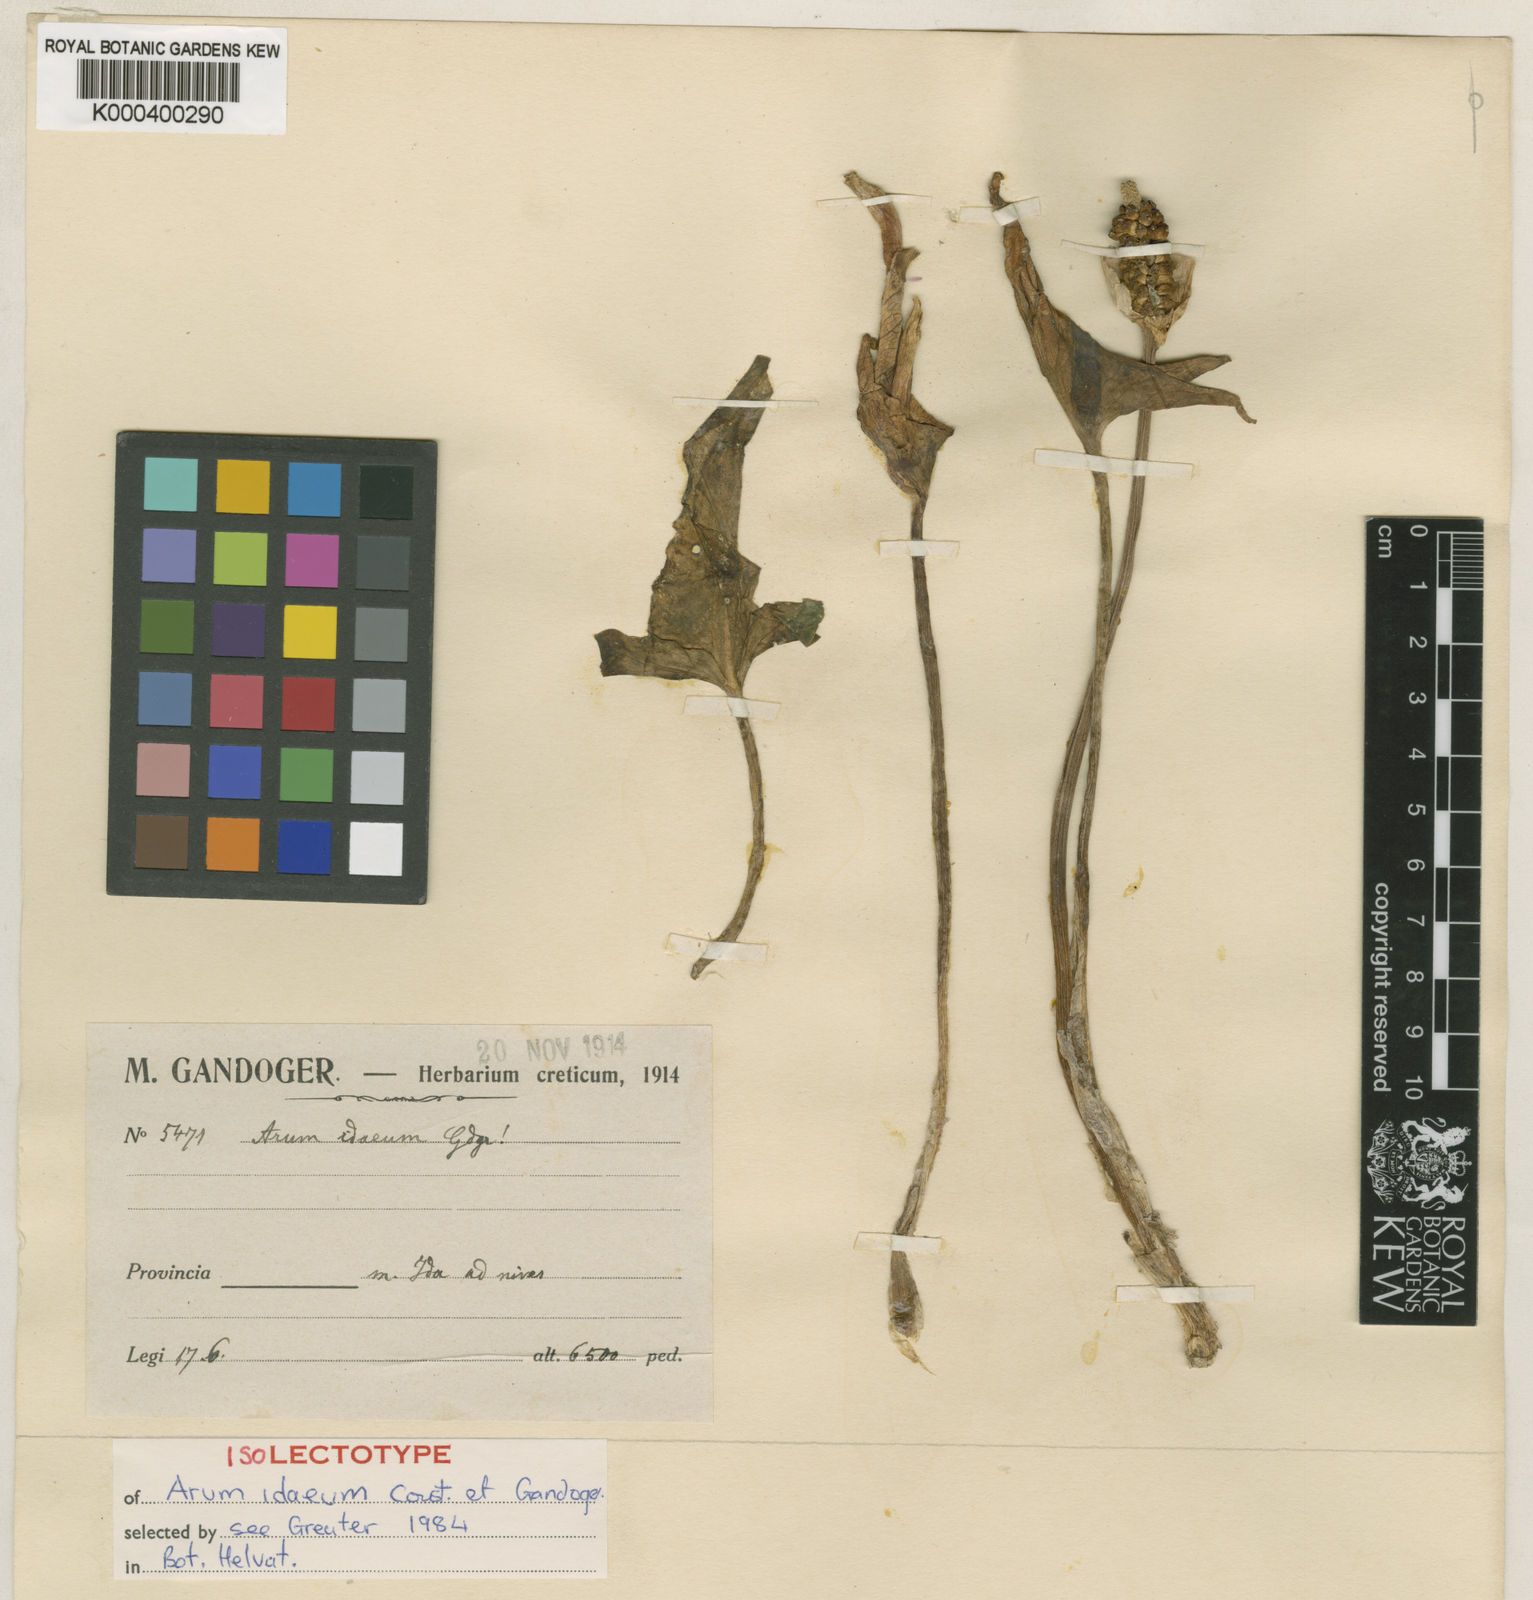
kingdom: Plantae
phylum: Tracheophyta
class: Liliopsida
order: Alismatales
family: Araceae
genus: Arum
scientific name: Arum idaeum
